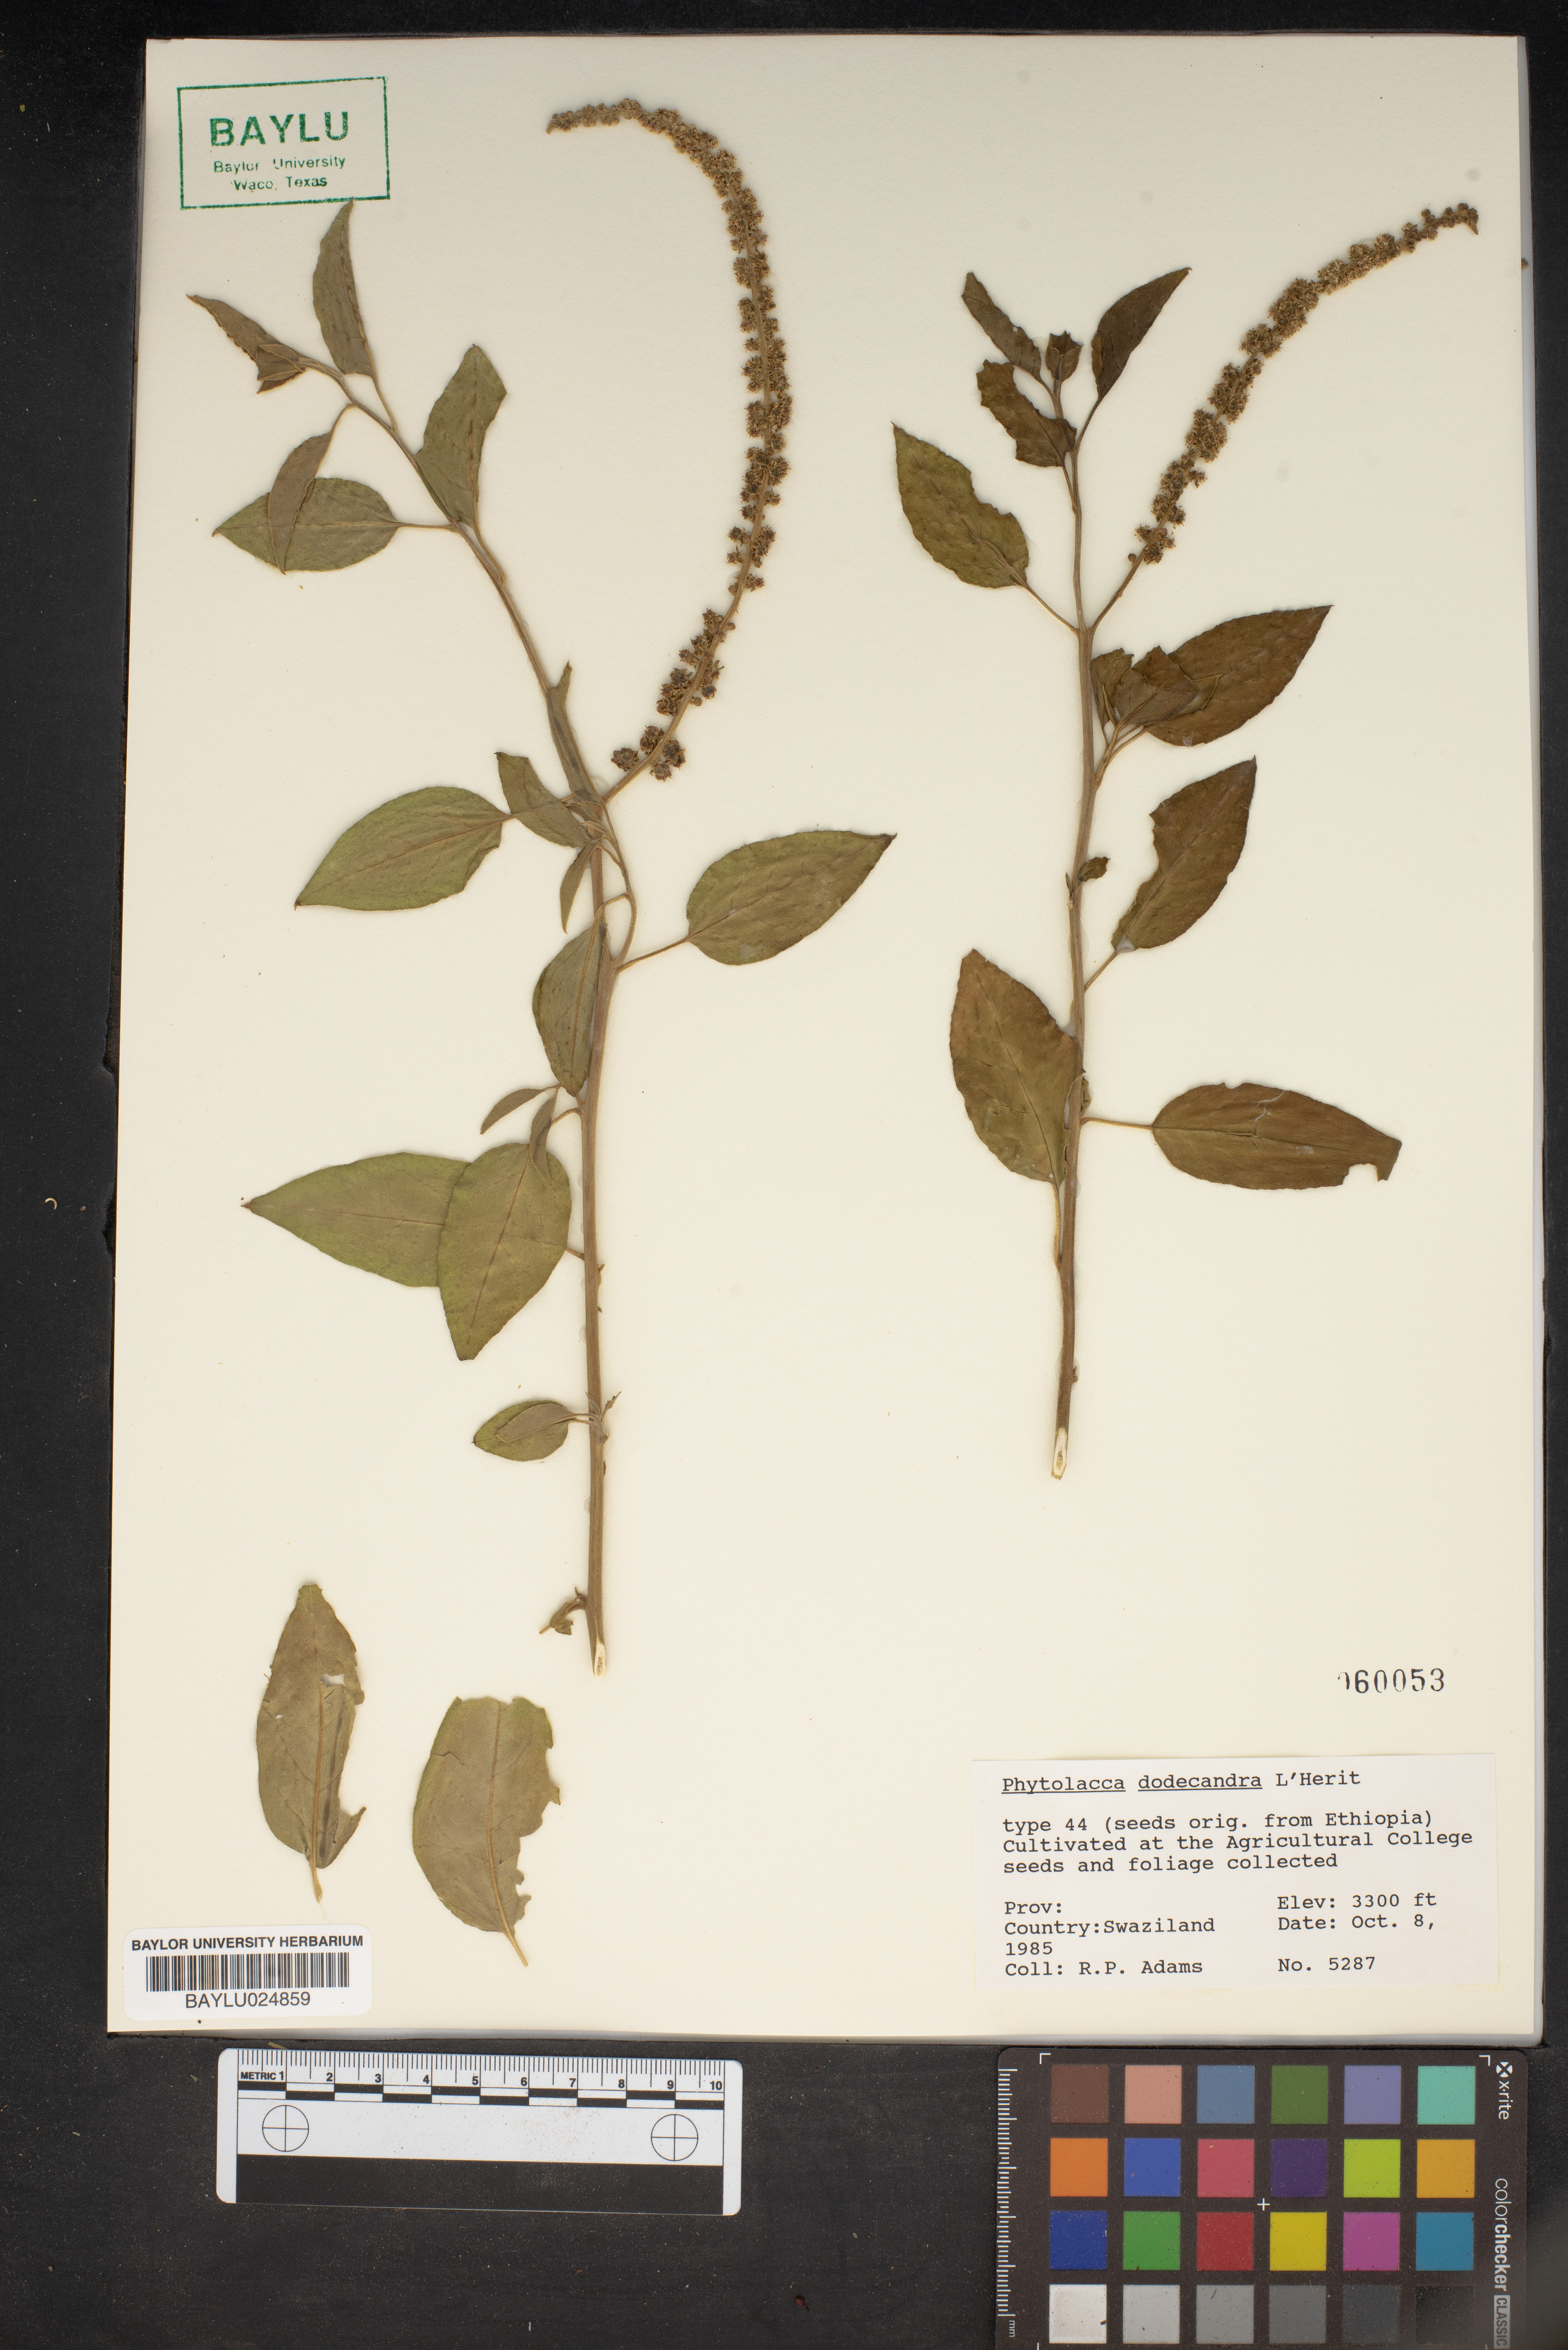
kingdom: Plantae
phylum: Tracheophyta
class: Magnoliopsida
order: Caryophyllales
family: Phytolaccaceae
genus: Phytolacca
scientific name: Phytolacca dodecandra
